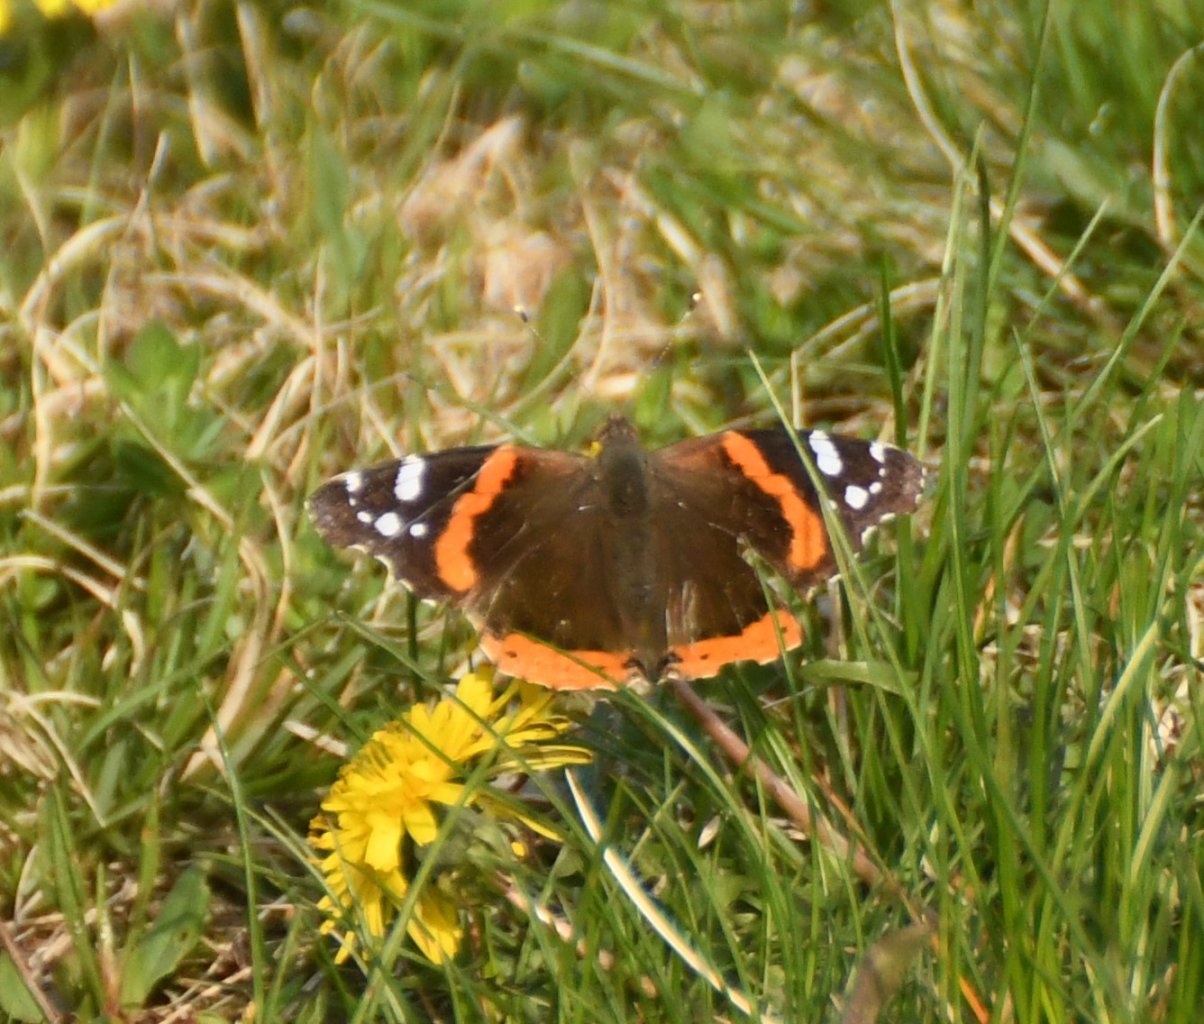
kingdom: Animalia
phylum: Arthropoda
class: Insecta
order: Lepidoptera
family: Nymphalidae
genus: Vanessa
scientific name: Vanessa atalanta
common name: Red Admiral
